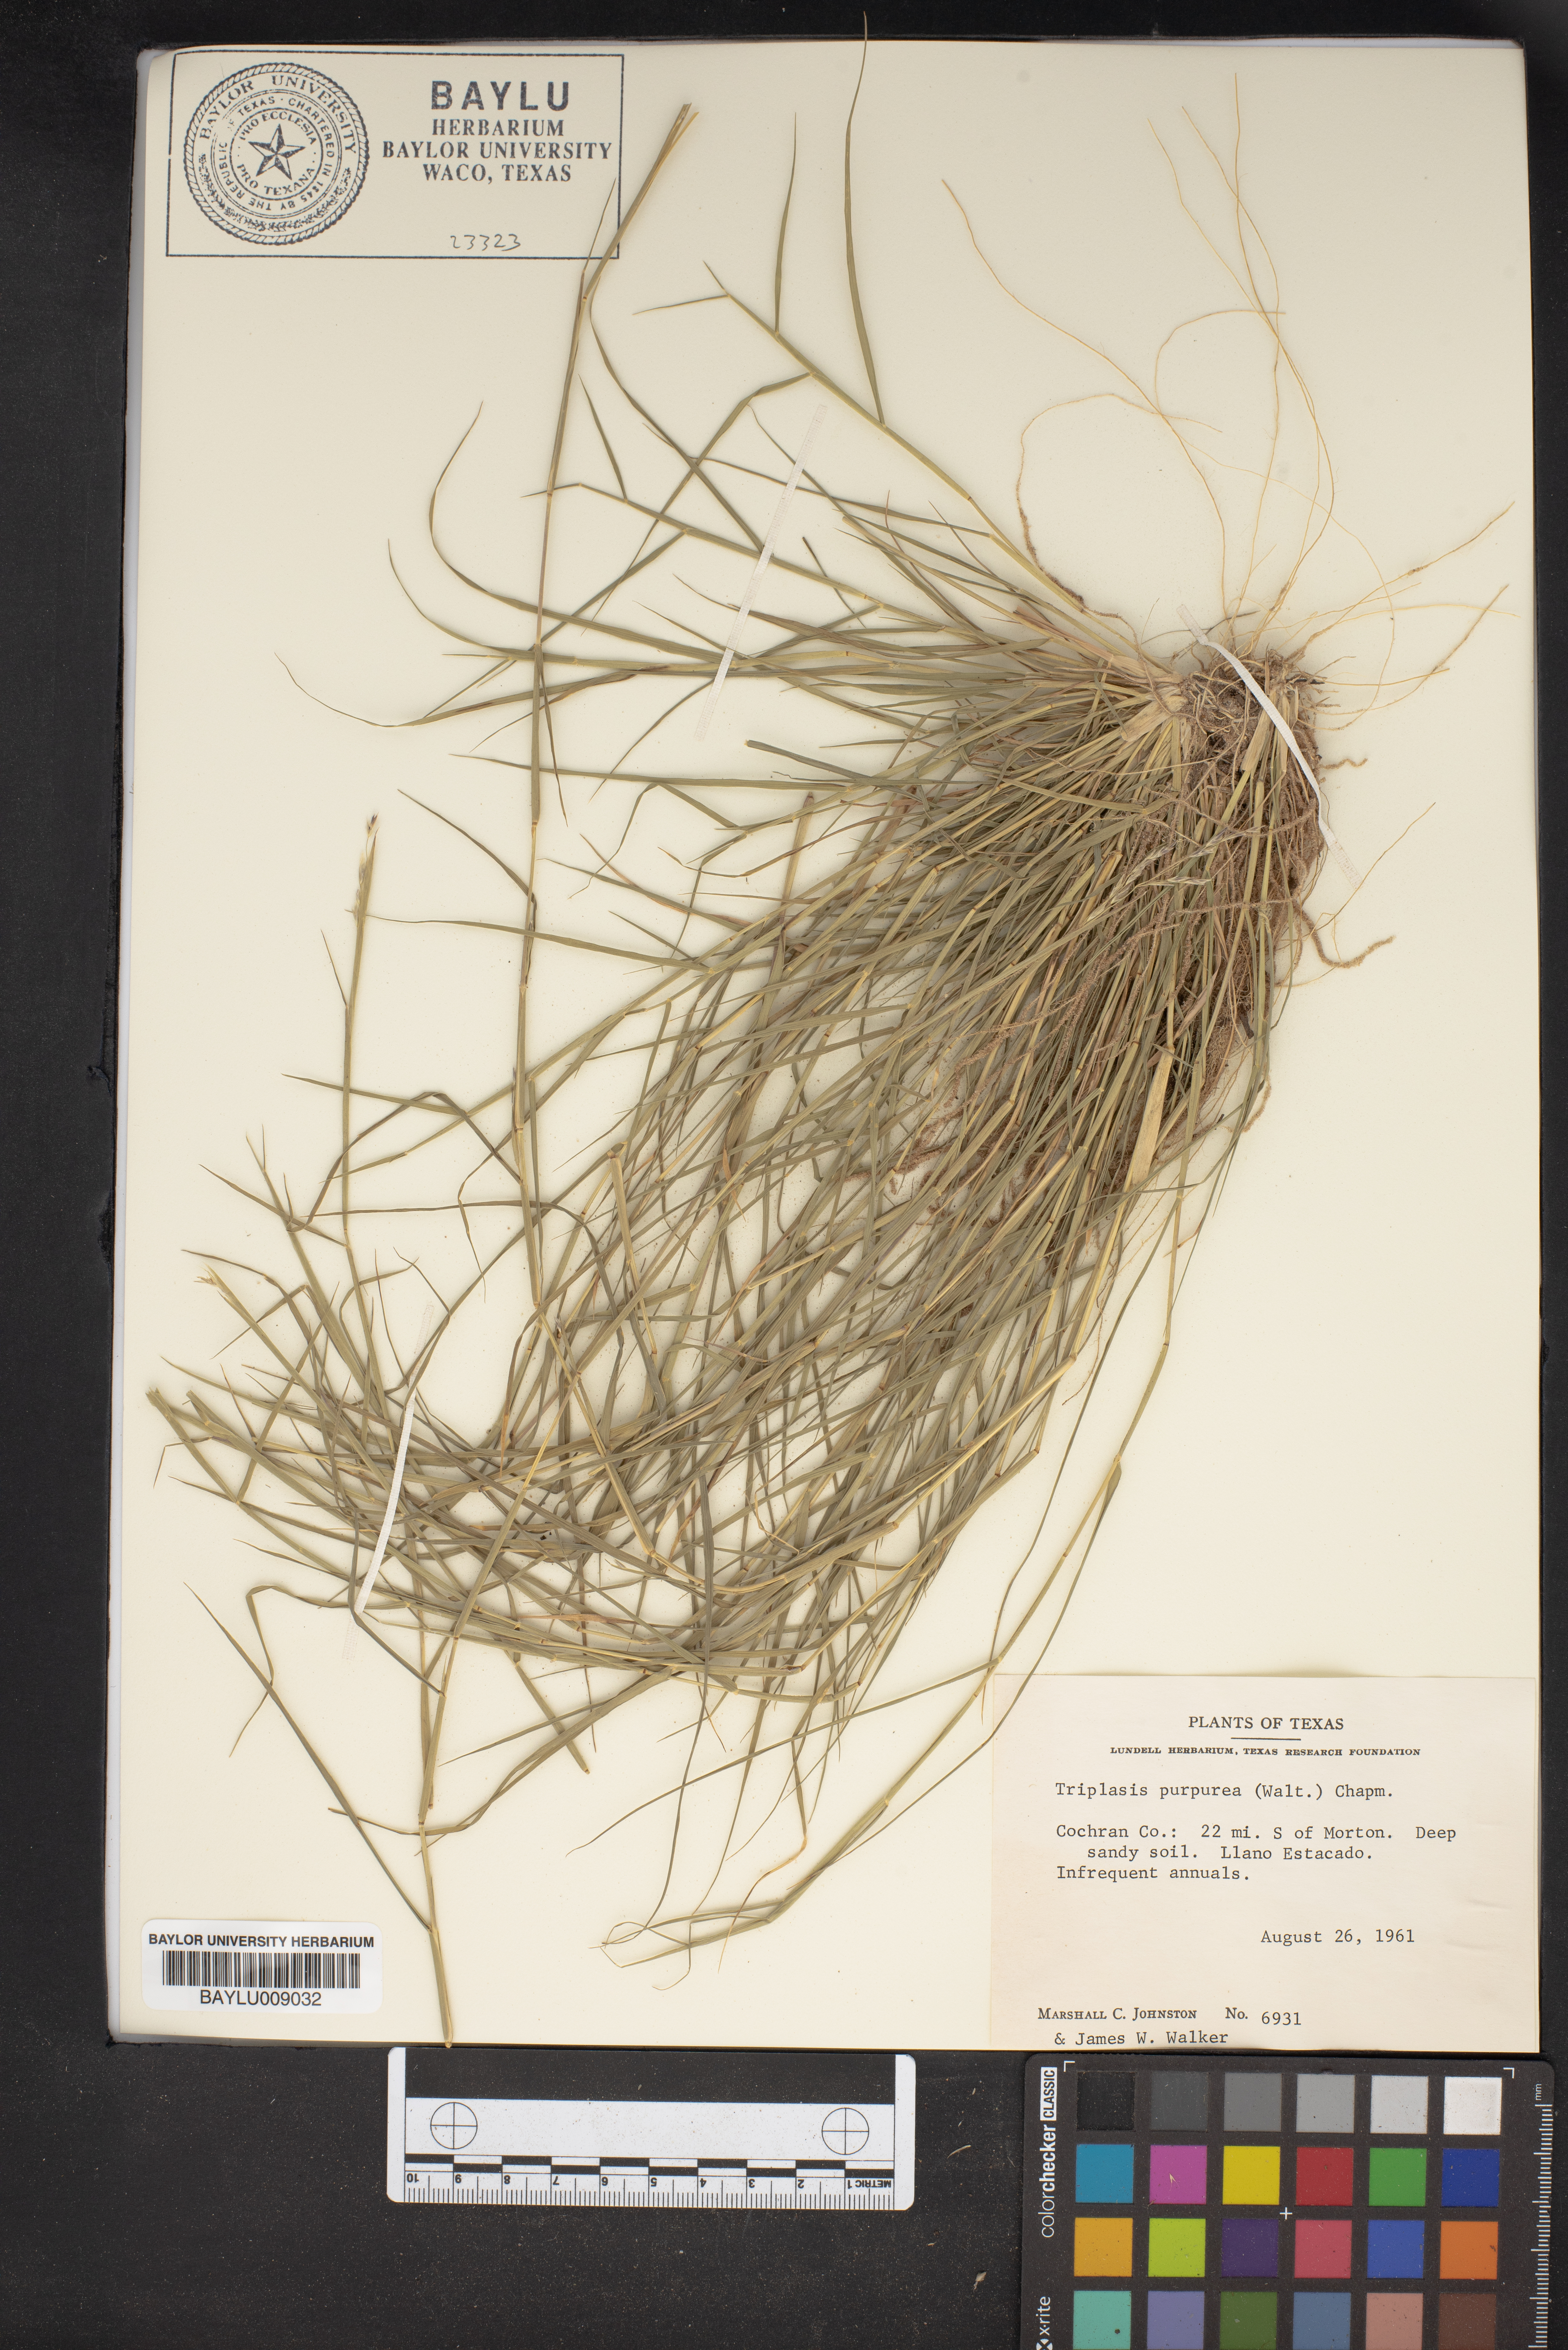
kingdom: Plantae
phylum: Tracheophyta
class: Liliopsida
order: Poales
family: Poaceae
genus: Triplasis
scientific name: Triplasis purpurea
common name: Purple sand grass
